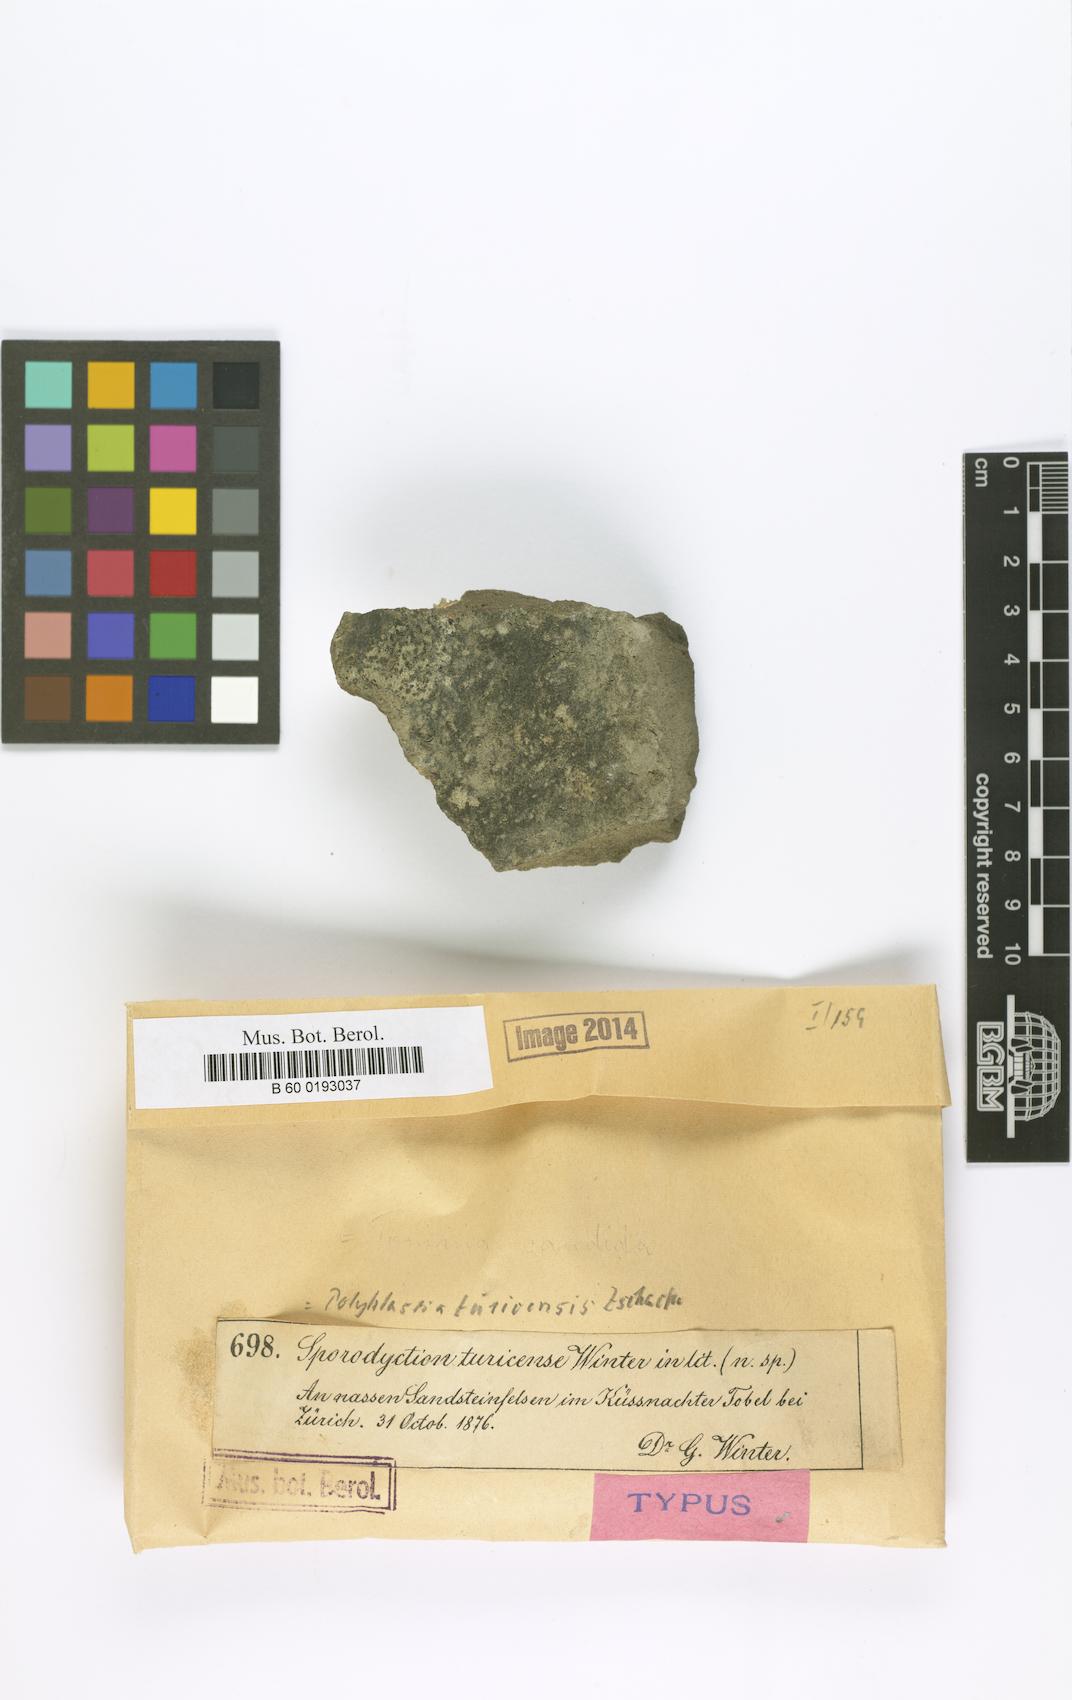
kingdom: Fungi
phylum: Ascomycota
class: Eurotiomycetes
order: Verrucariales
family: Verrucariaceae
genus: Sporodictyon
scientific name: Sporodictyon turicense
